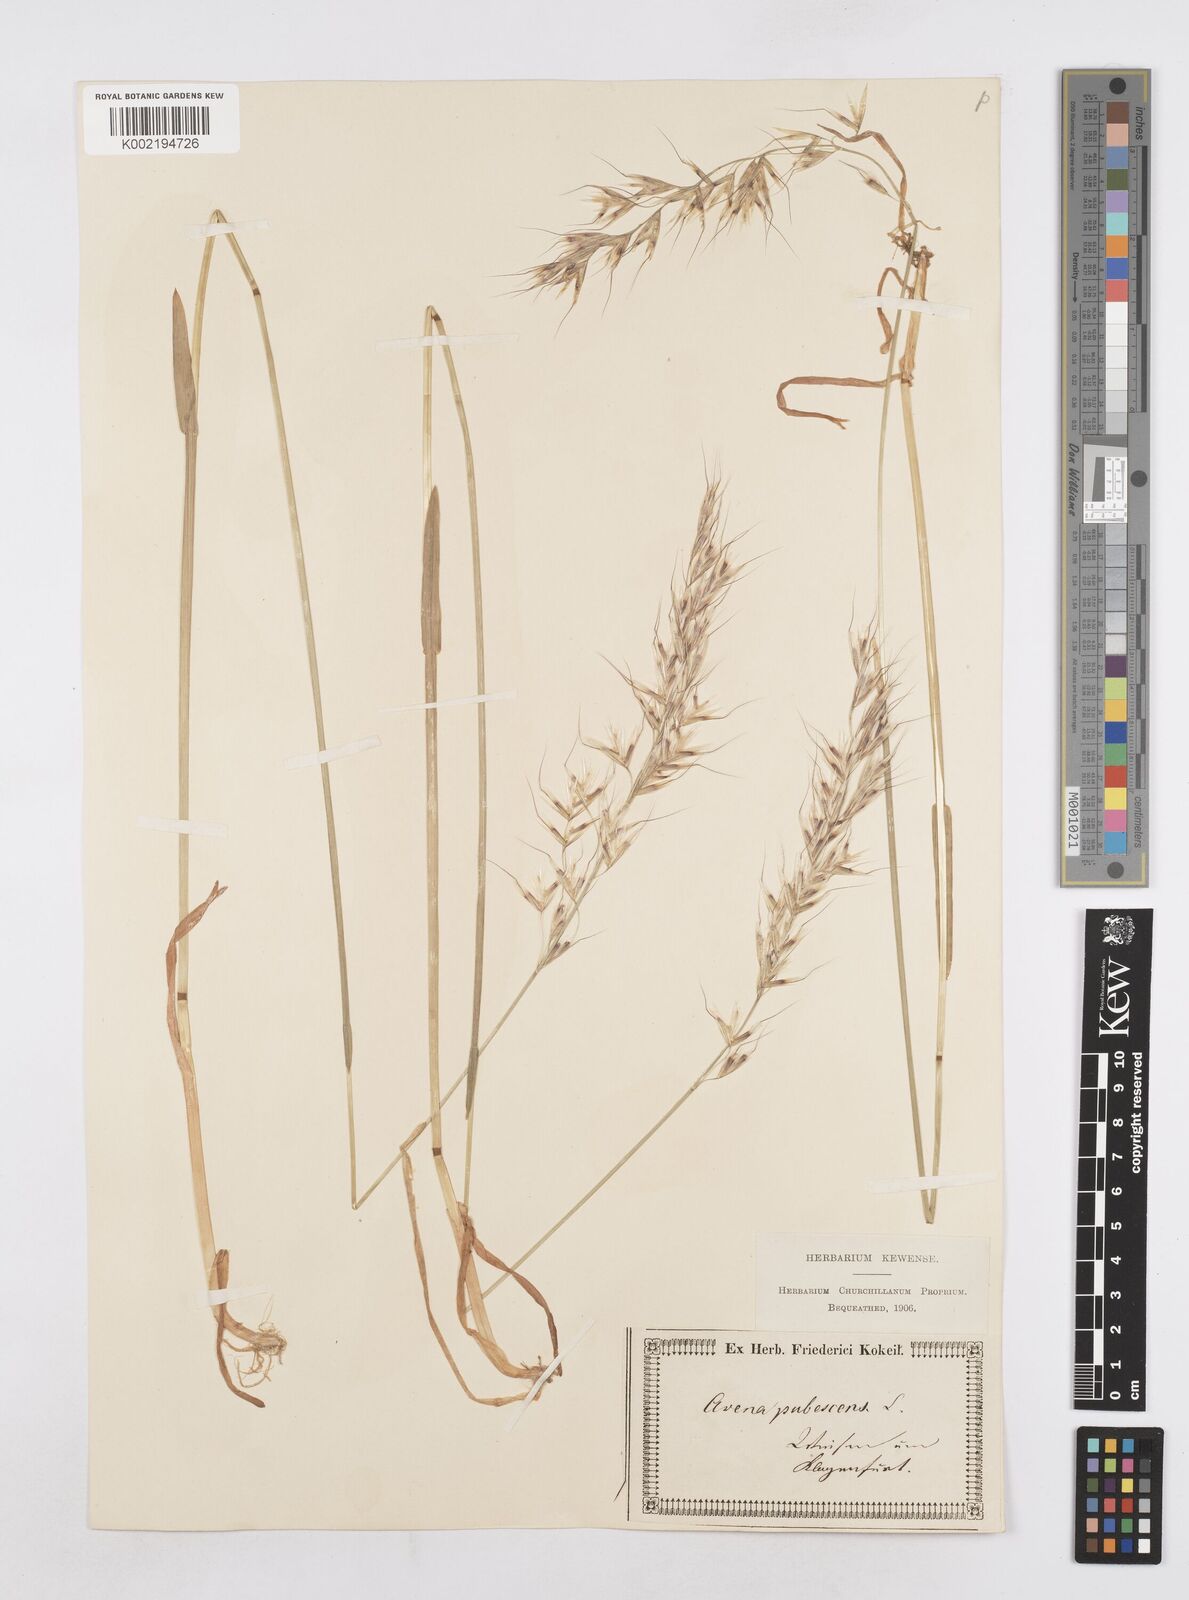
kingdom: Plantae
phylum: Tracheophyta
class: Liliopsida
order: Poales
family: Poaceae
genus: Avenula
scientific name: Avenula pubescens
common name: Downy alpine oatgrass
